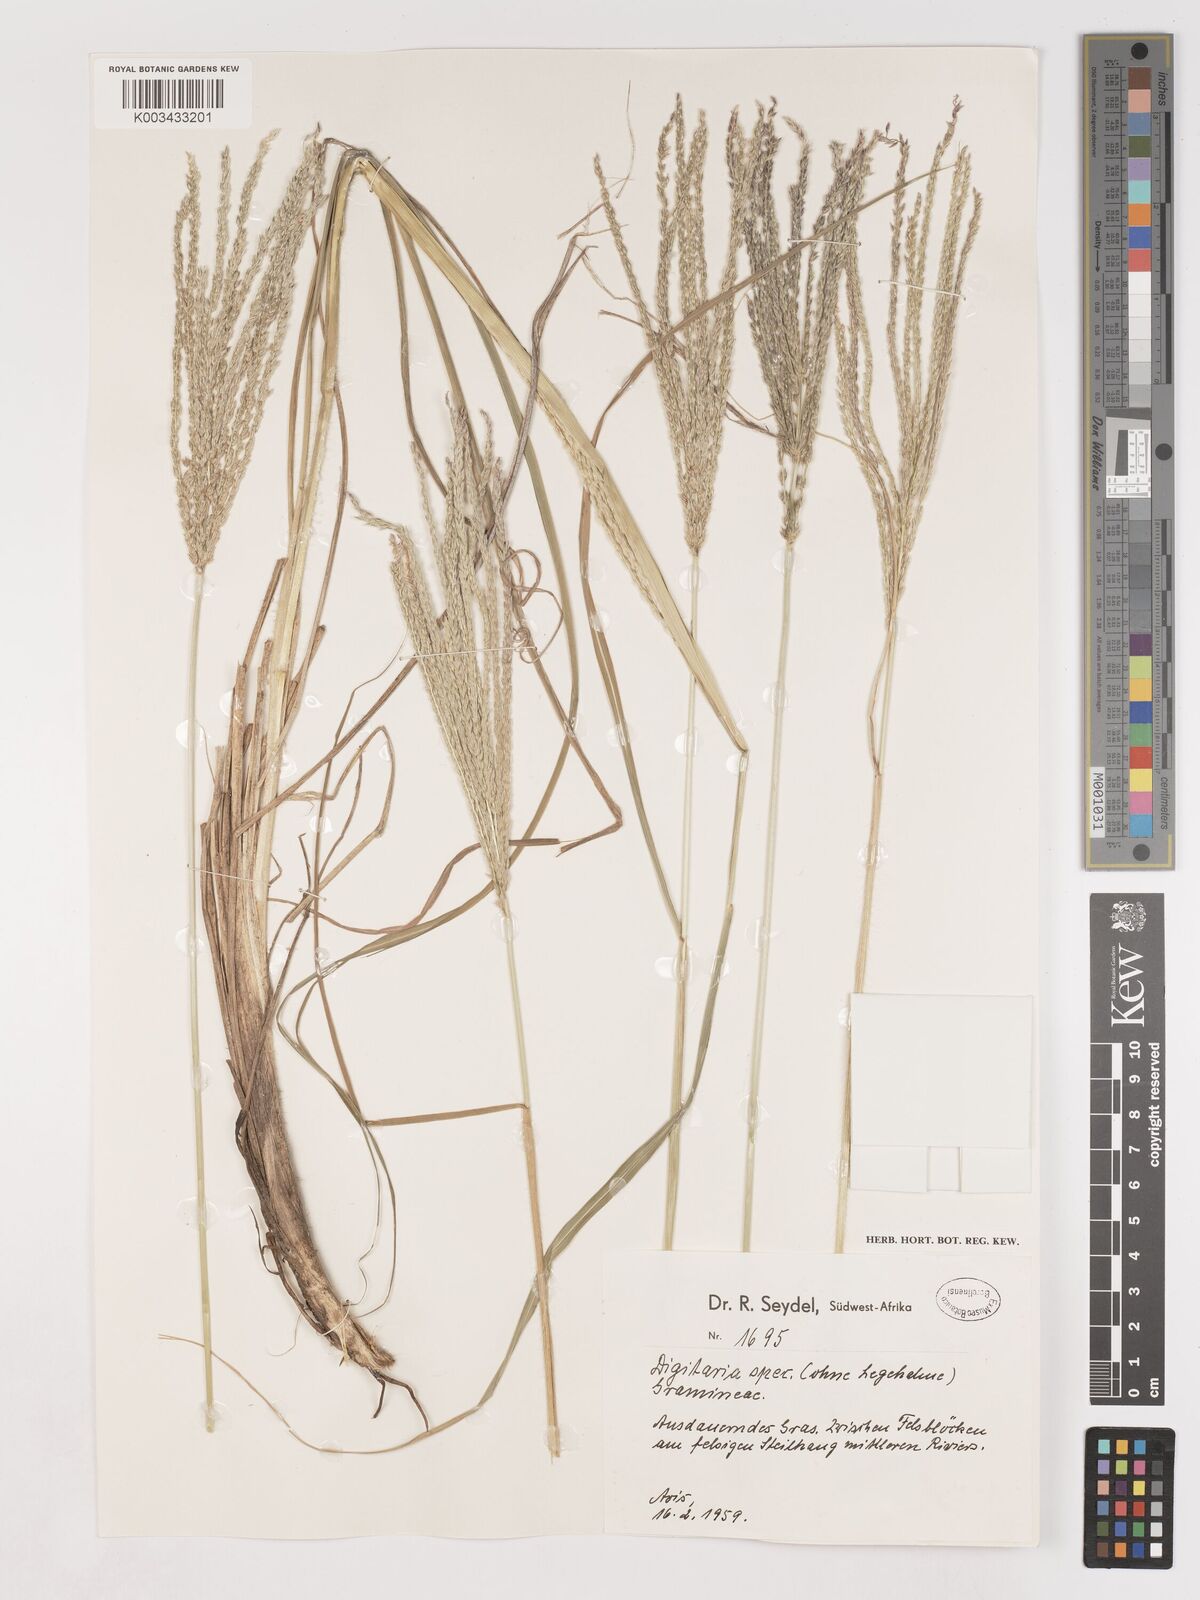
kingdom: Plantae
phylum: Tracheophyta
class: Liliopsida
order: Poales
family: Poaceae
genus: Digitaria
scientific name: Digitaria eriantha
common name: Digitgrass
